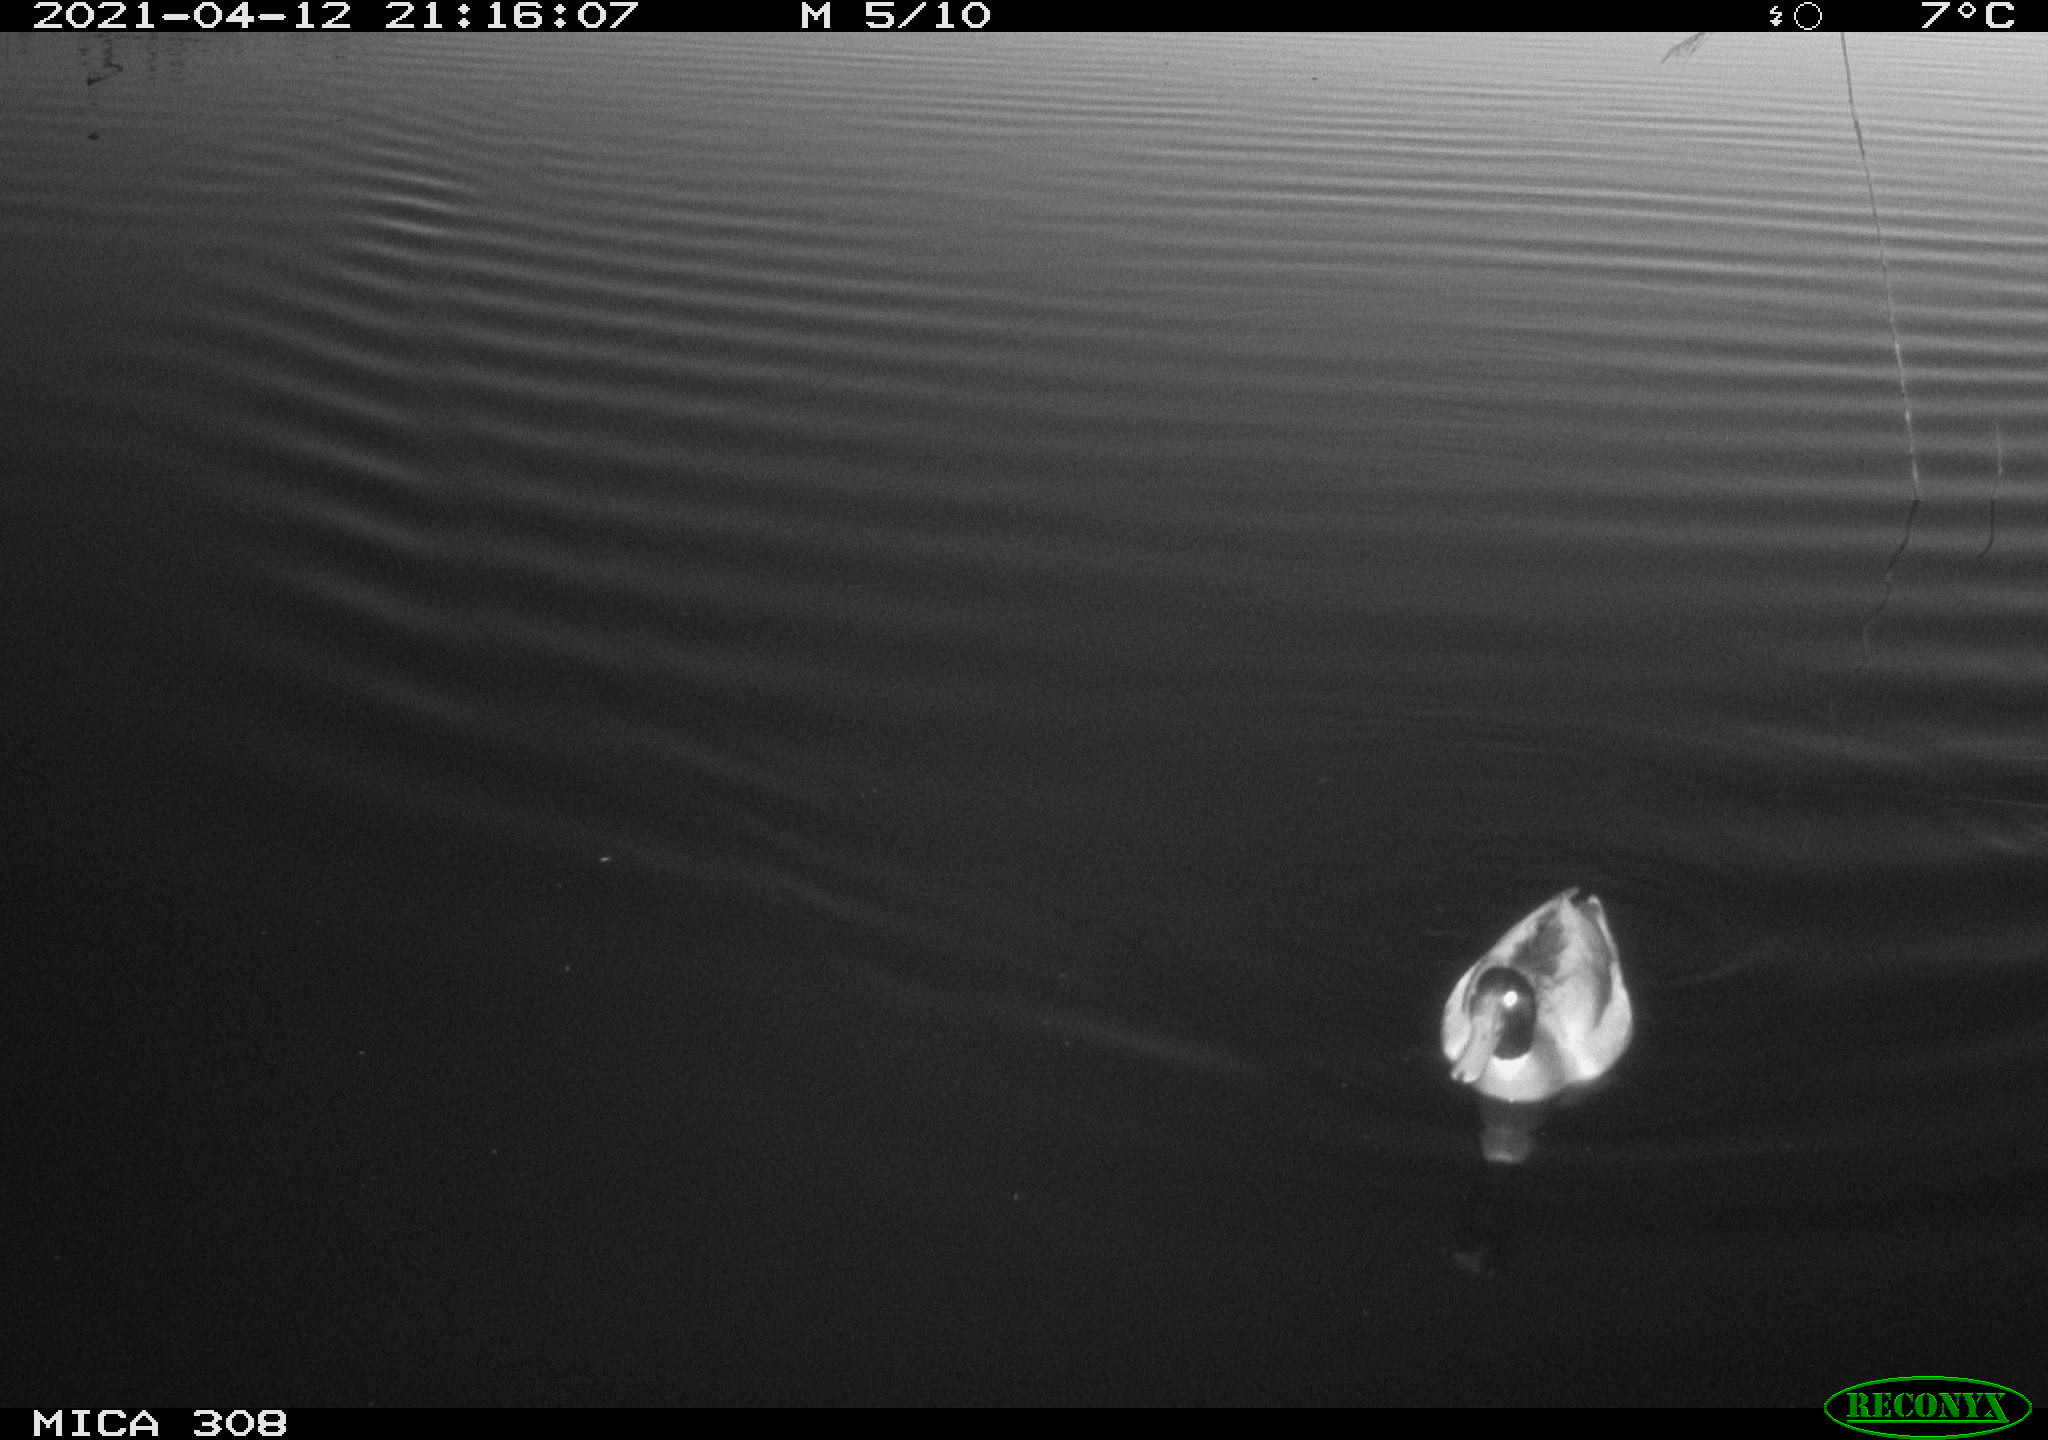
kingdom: Animalia
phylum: Chordata
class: Aves
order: Anseriformes
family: Anatidae
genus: Anas
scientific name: Anas platyrhynchos
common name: Mallard
